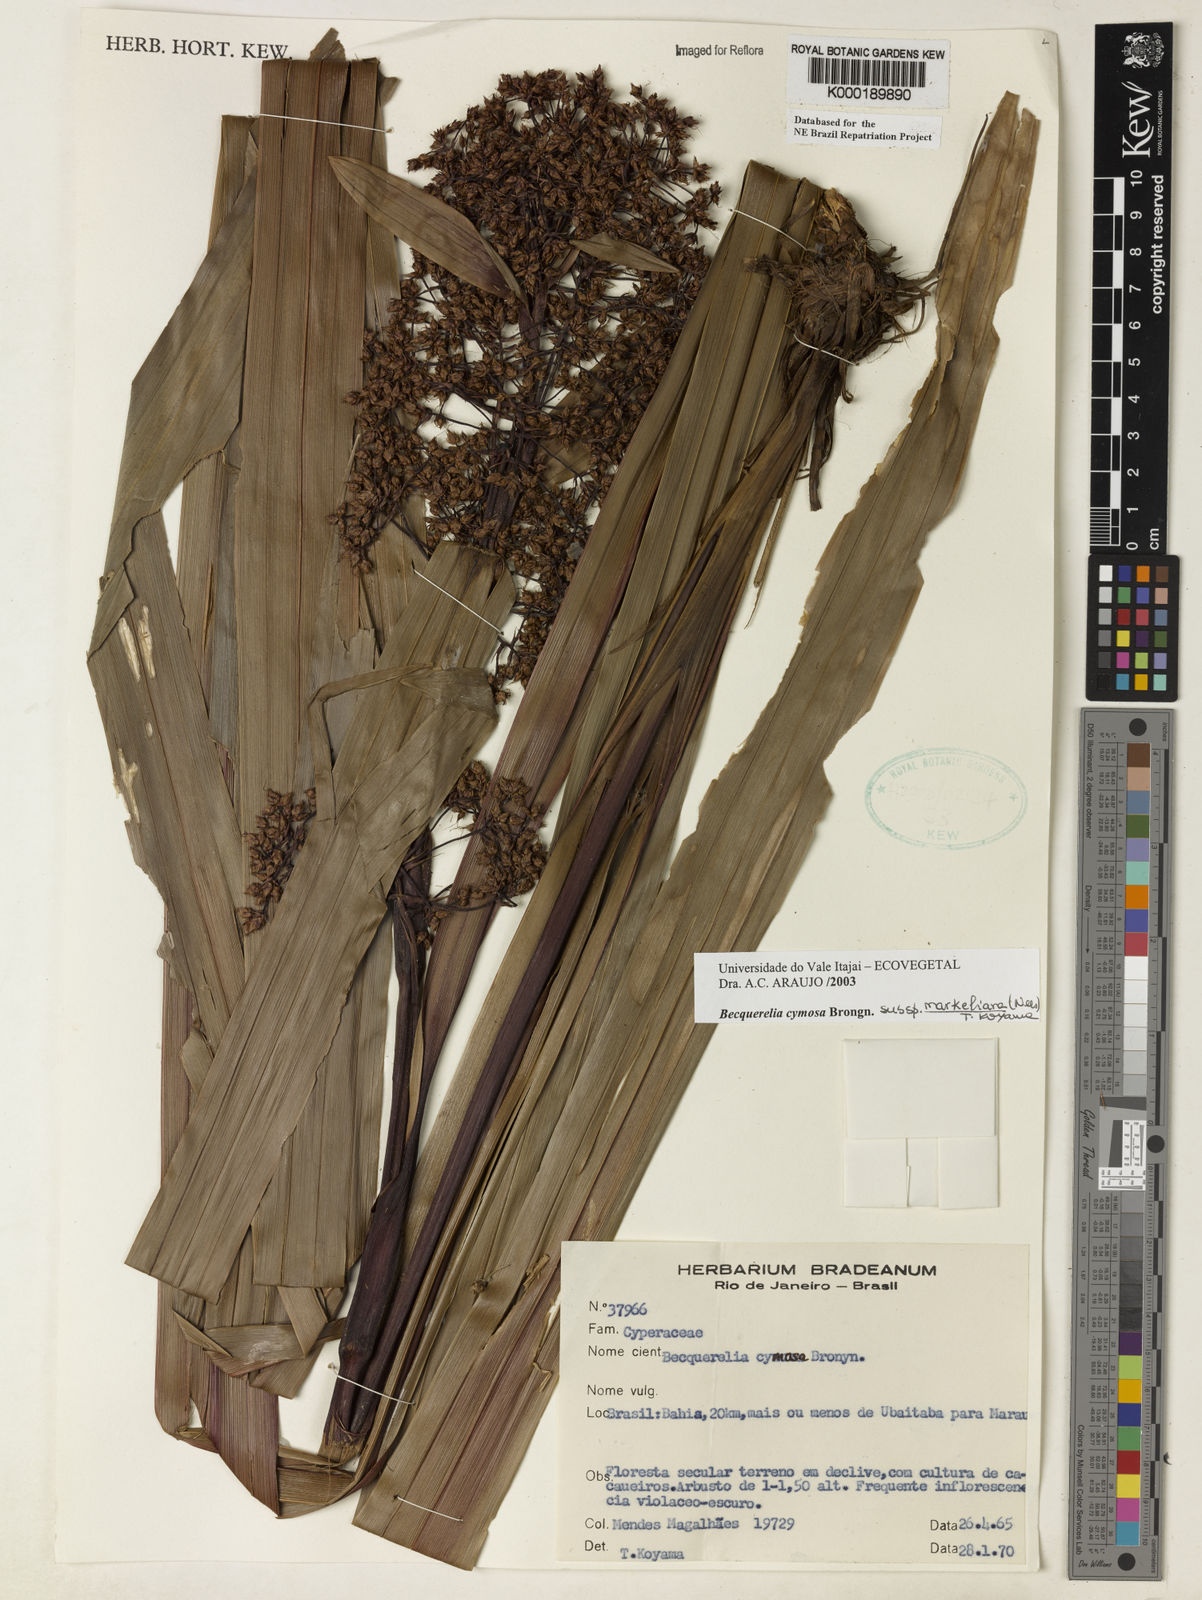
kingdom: Plantae
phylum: Tracheophyta
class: Liliopsida
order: Poales
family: Cyperaceae
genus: Becquerelia
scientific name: Becquerelia merkeliana
